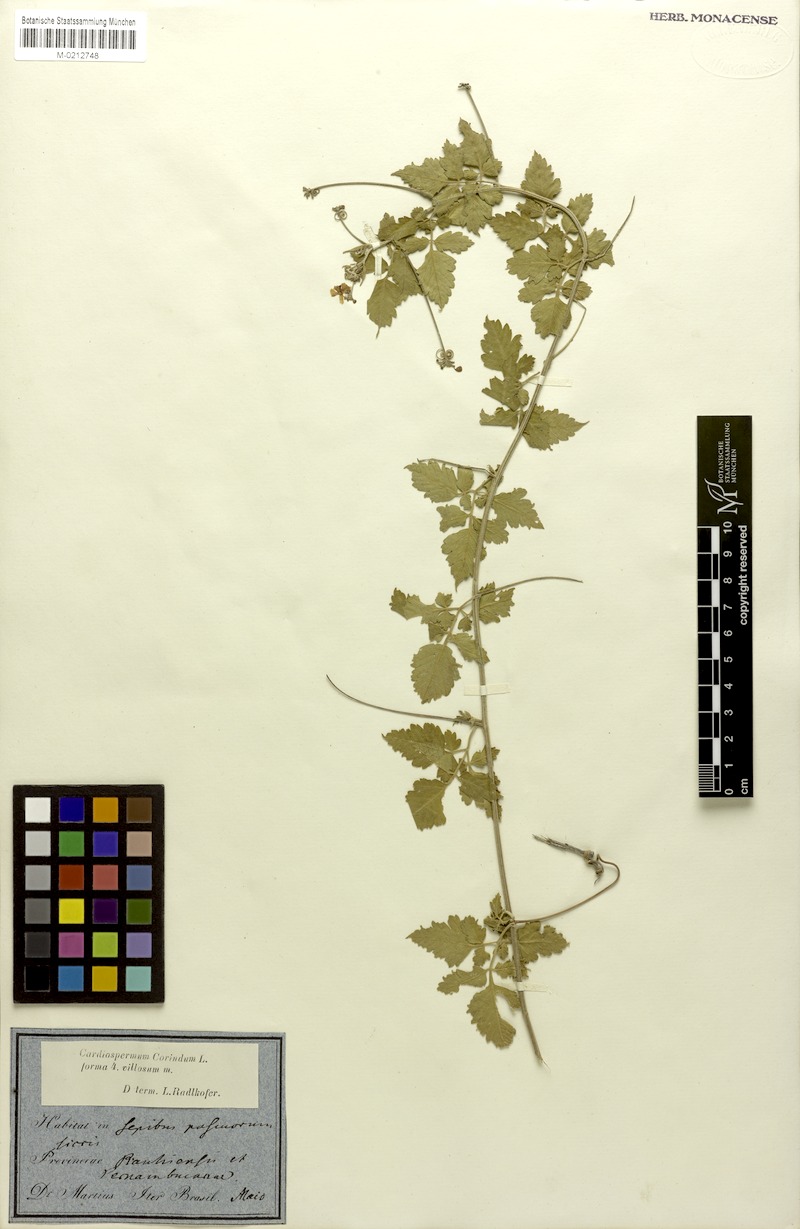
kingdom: Plantae
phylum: Tracheophyta
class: Magnoliopsida
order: Sapindales
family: Sapindaceae
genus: Cardiospermum
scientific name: Cardiospermum corindum
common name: Faux persil
